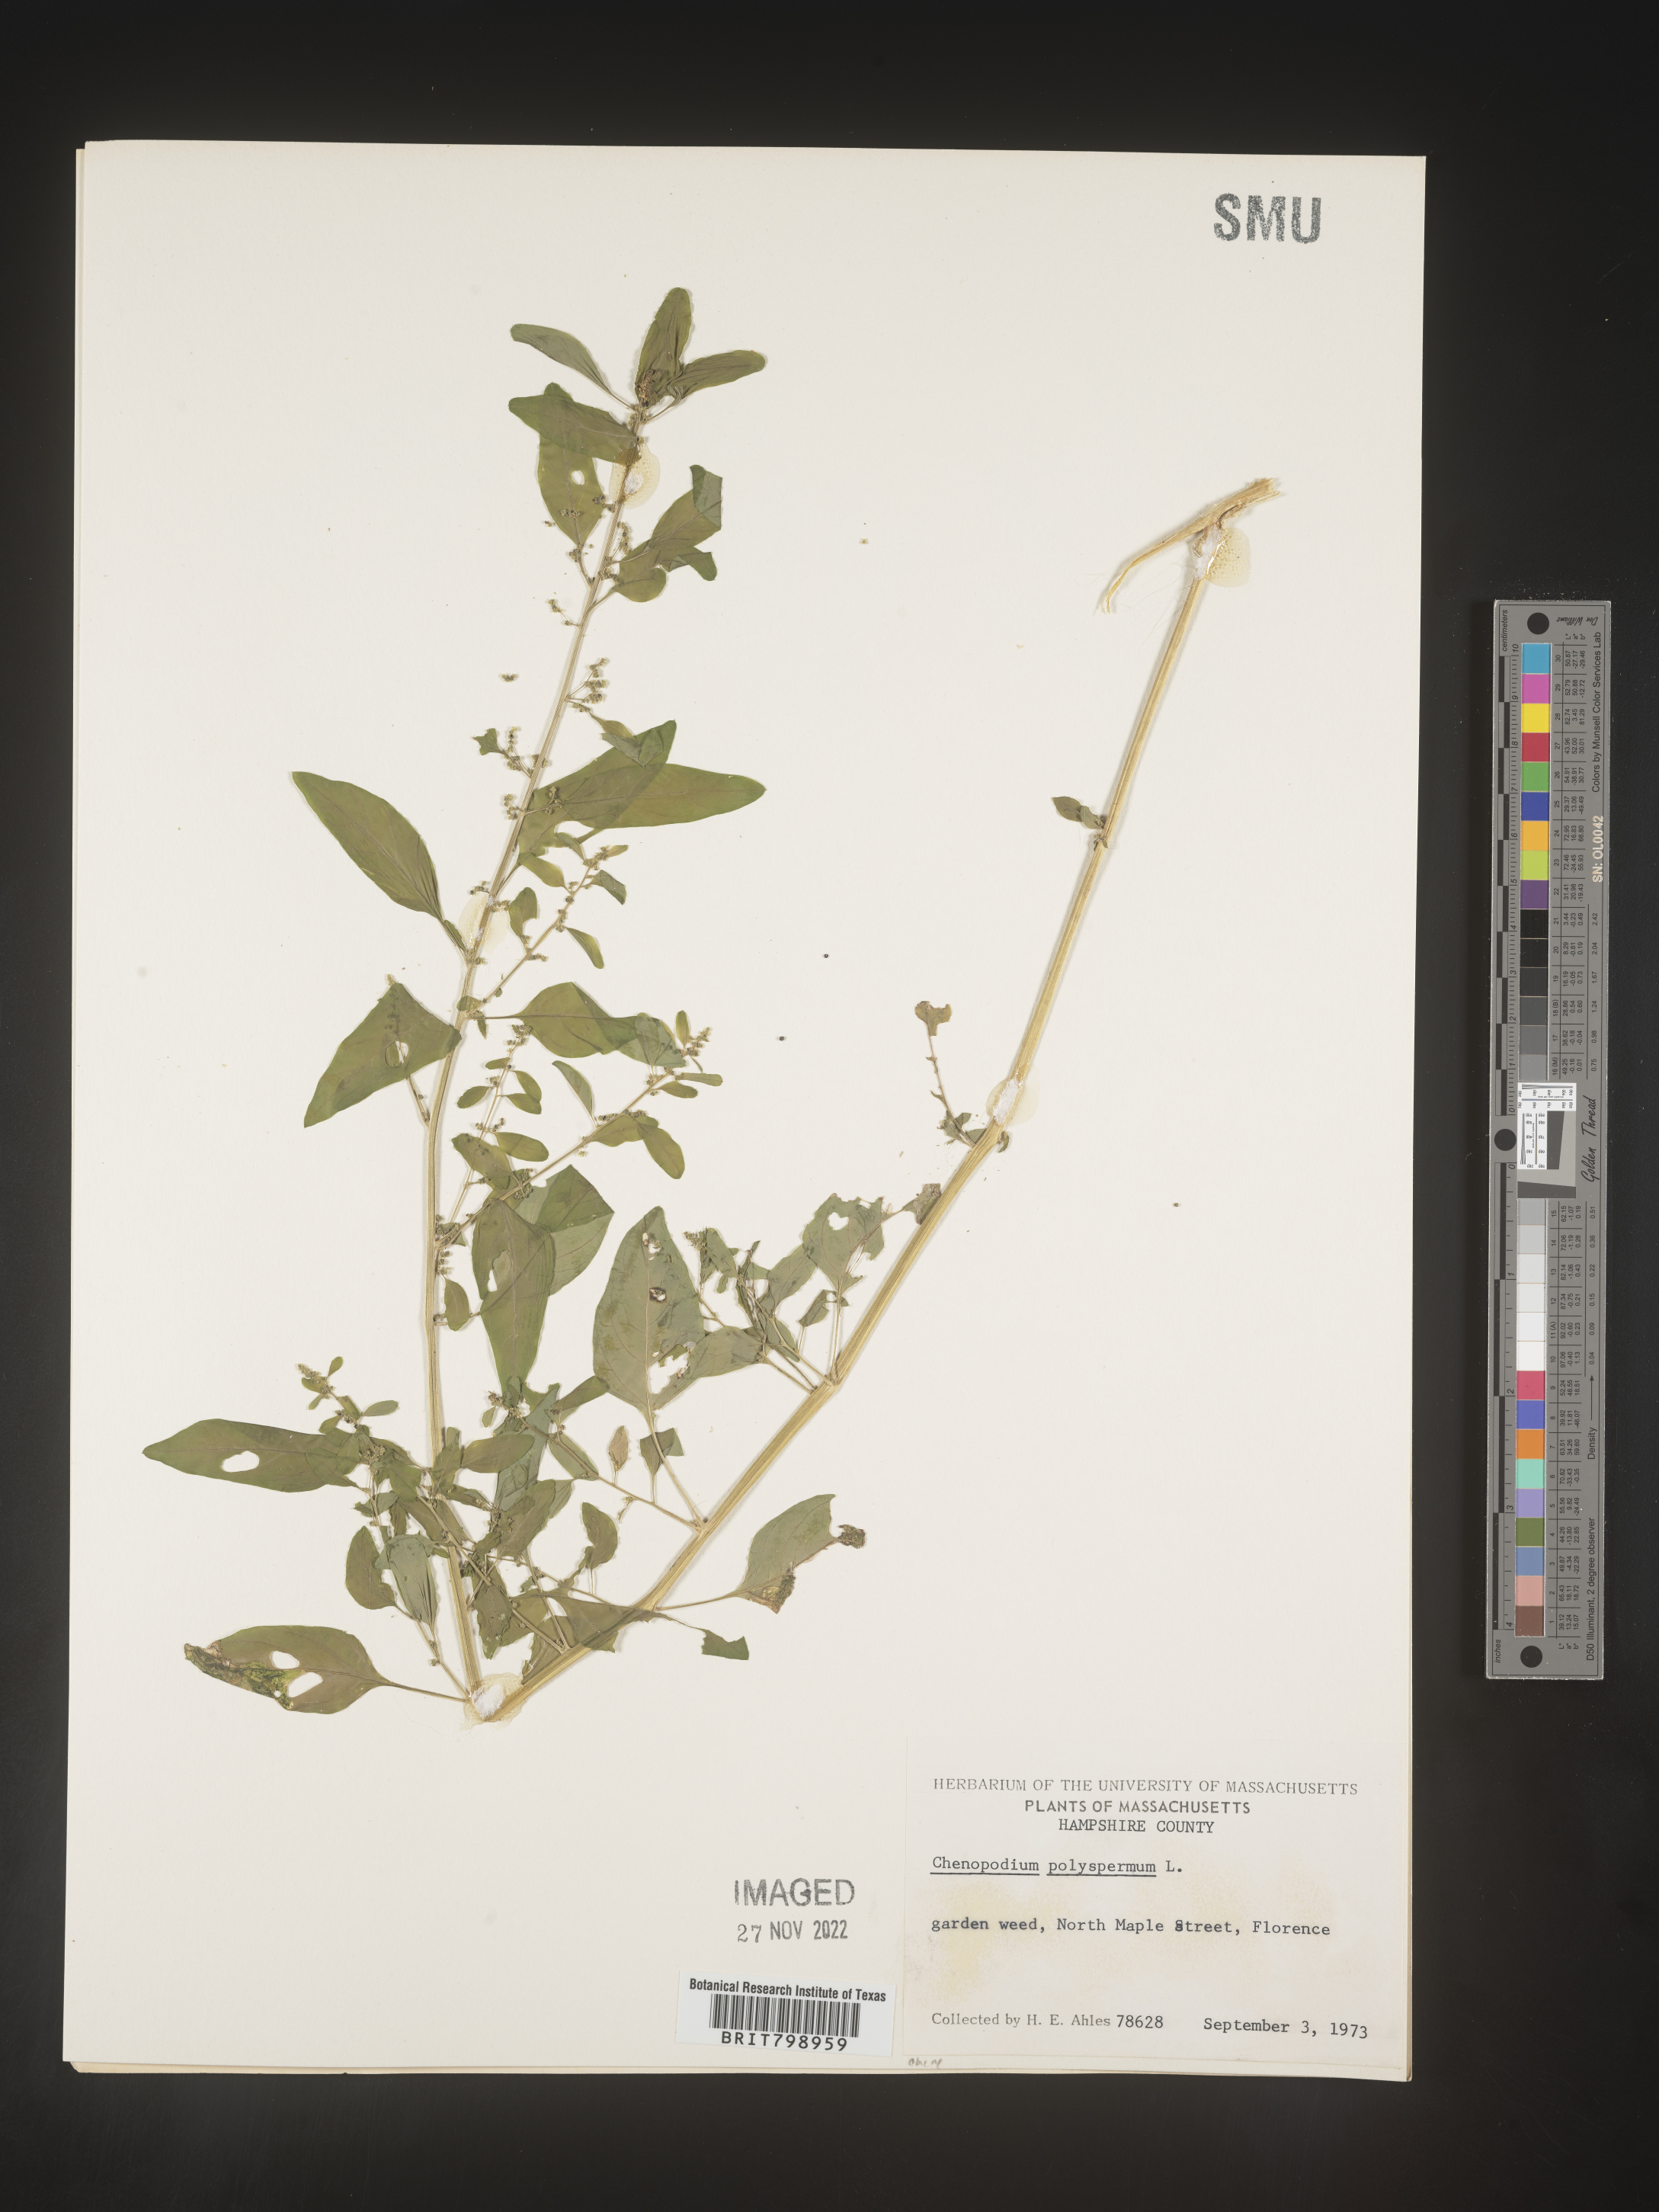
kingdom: Plantae
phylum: Tracheophyta
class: Magnoliopsida
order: Caryophyllales
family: Amaranthaceae
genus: Lipandra
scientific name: Lipandra polysperma
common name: Many-seed goosefoot
